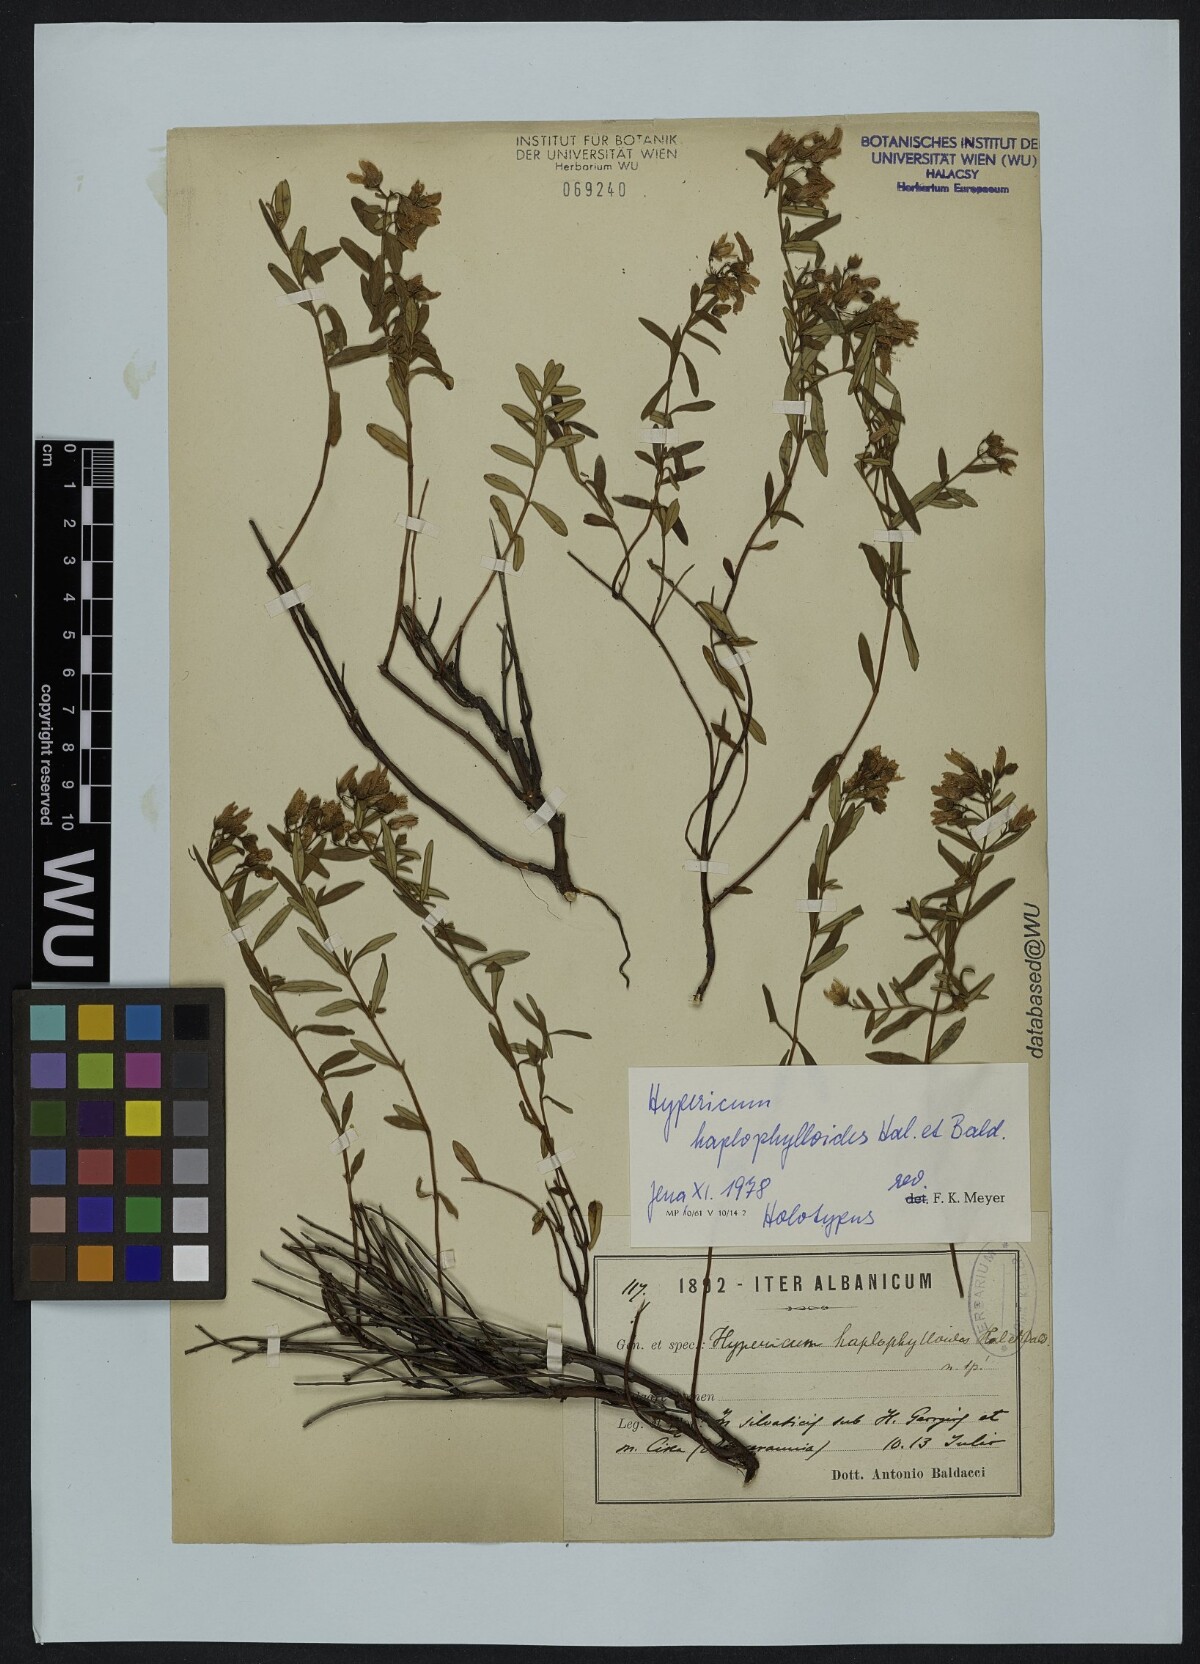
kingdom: Plantae
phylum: Tracheophyta
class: Magnoliopsida
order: Malpighiales
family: Hypericaceae
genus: Hypericum
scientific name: Hypericum haplophylloides
